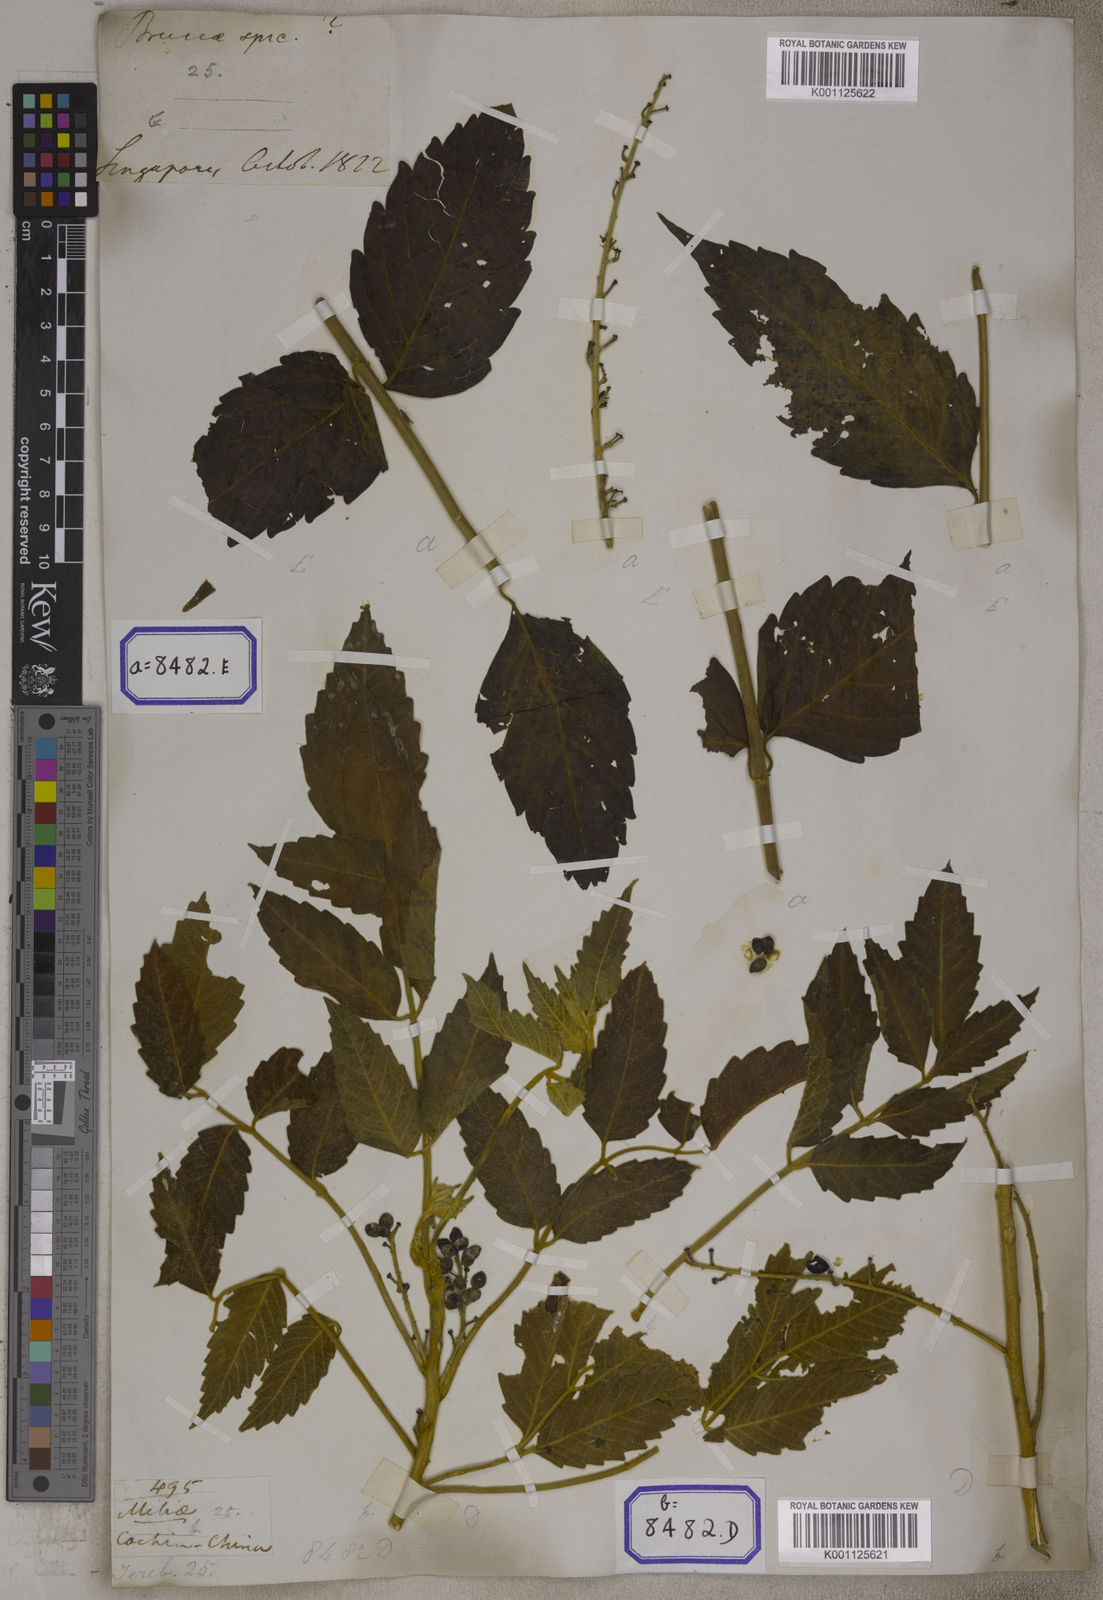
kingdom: Plantae
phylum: Tracheophyta
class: Magnoliopsida
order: Sapindales
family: Simaroubaceae
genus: Brucea
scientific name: Brucea javanica
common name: Macassar kernels
